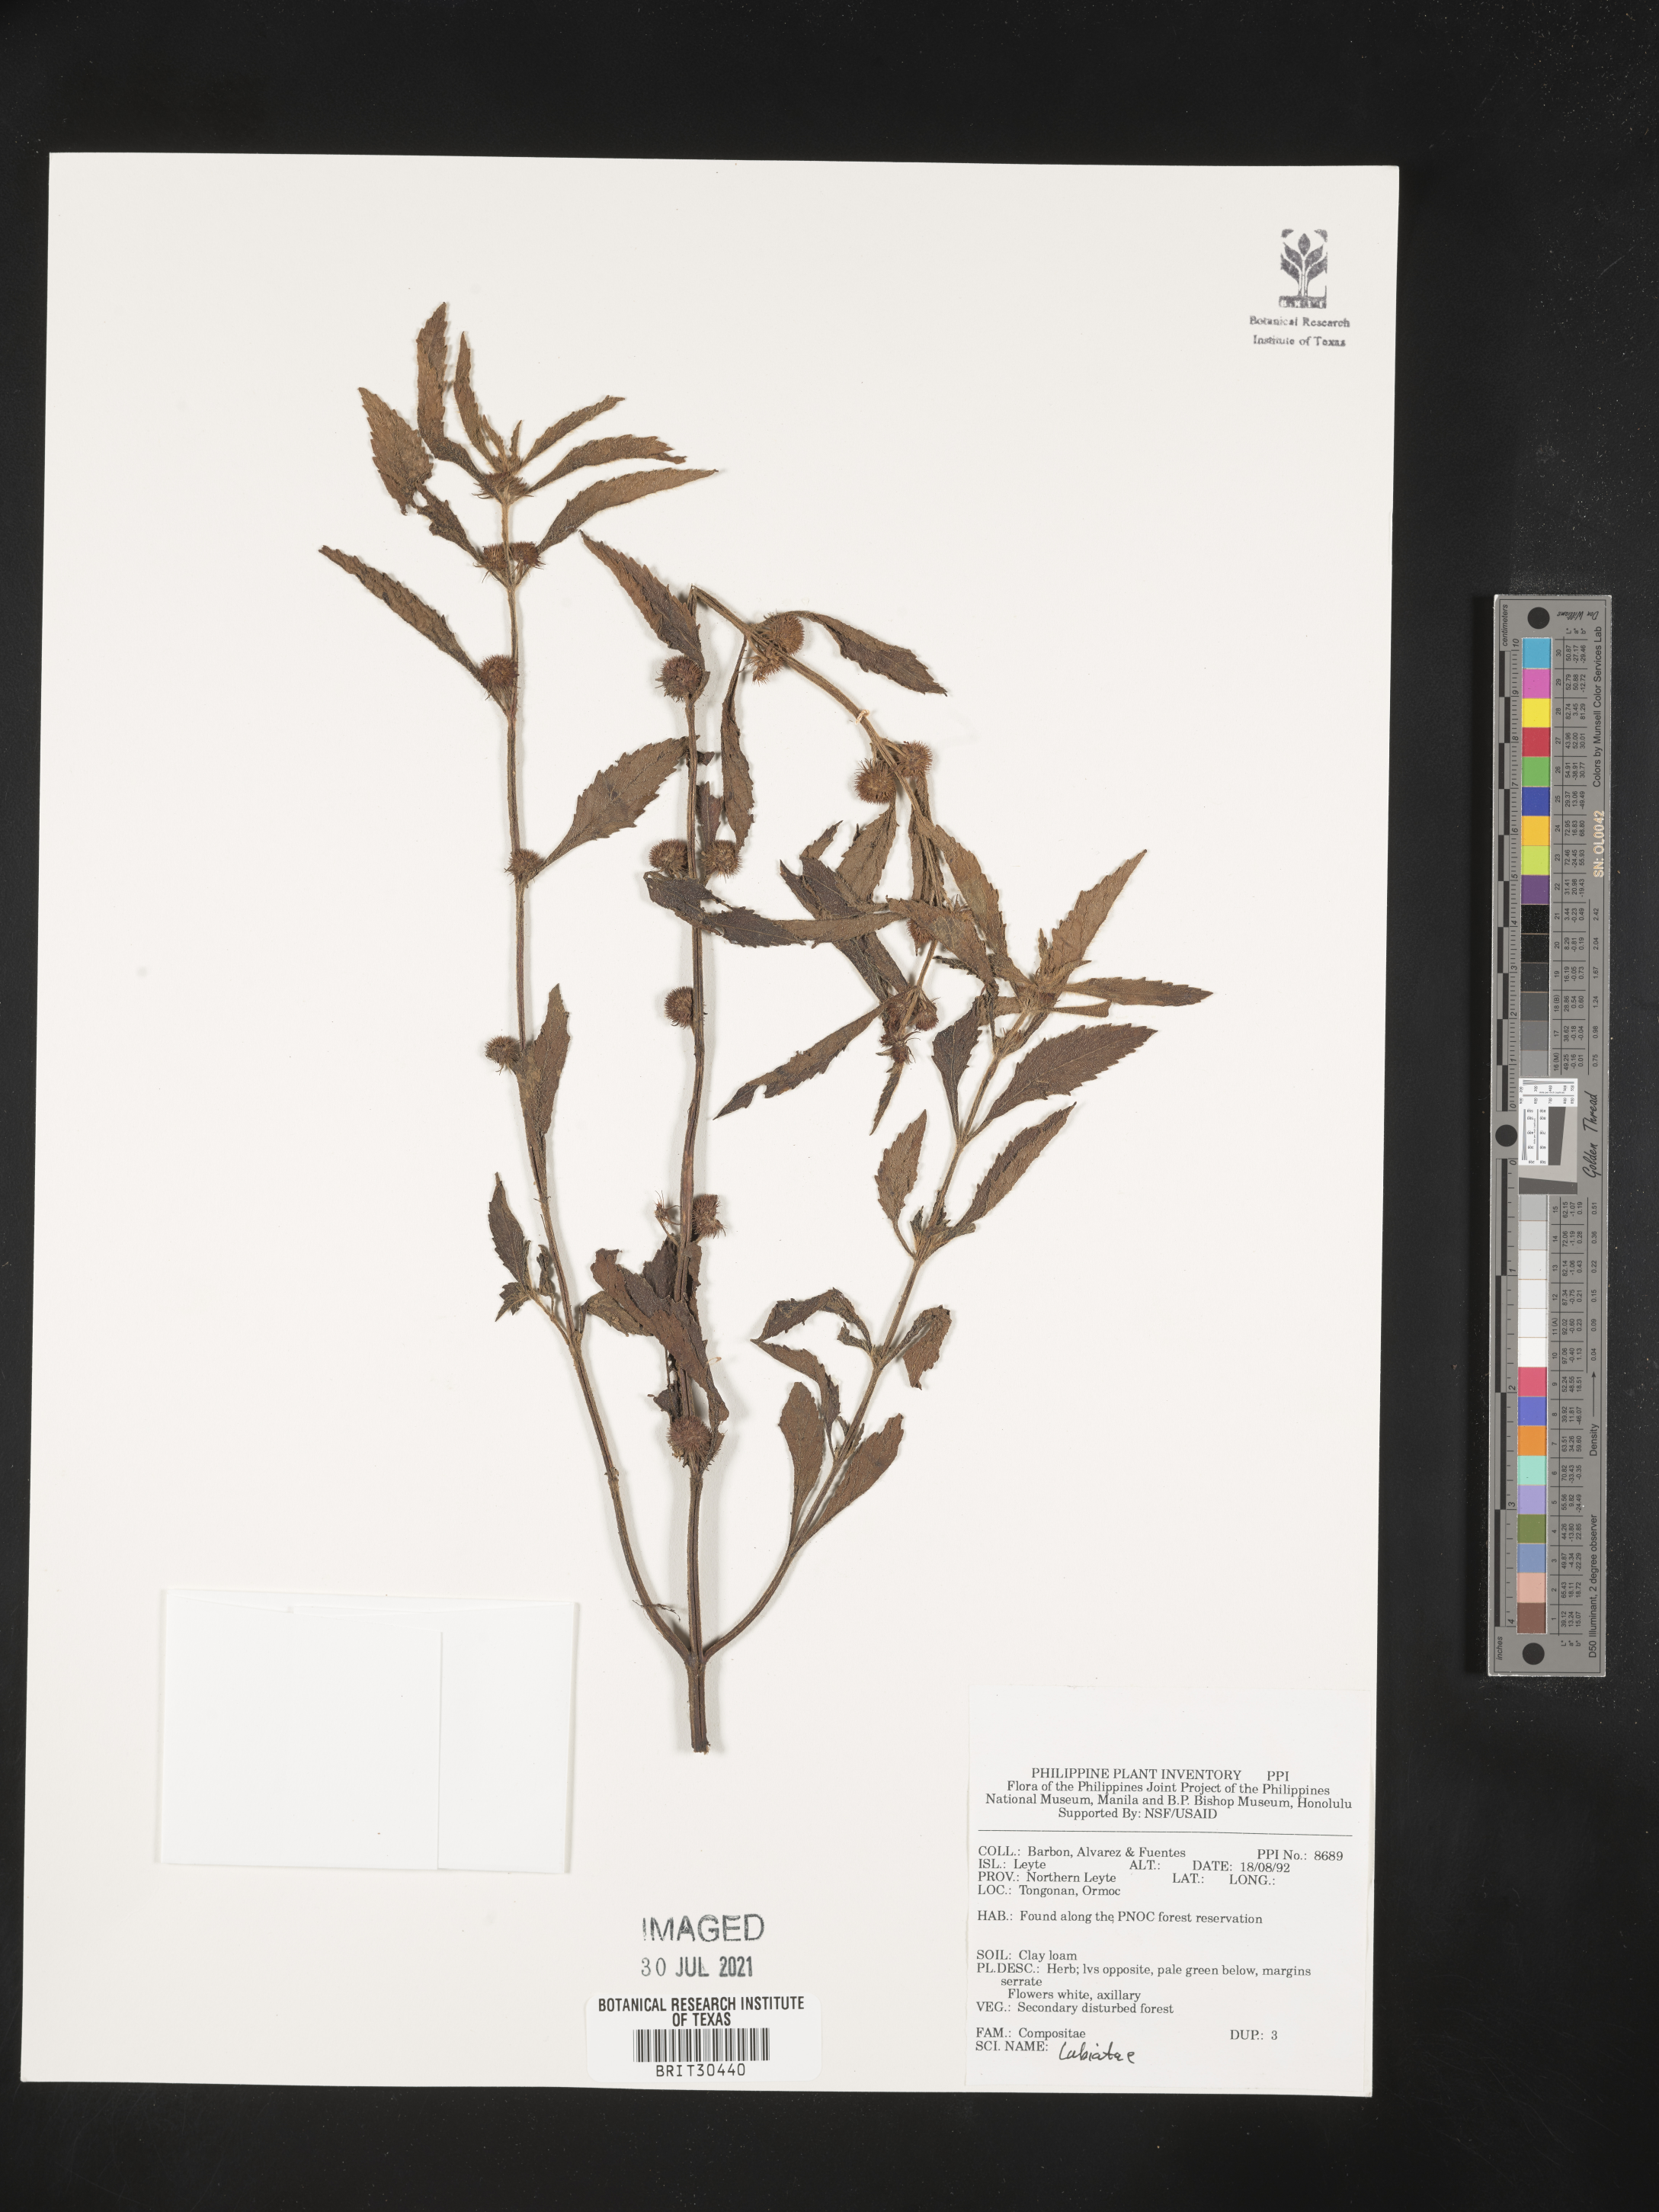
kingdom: Plantae
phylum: Tracheophyta
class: Magnoliopsida
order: Lamiales
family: Lamiaceae
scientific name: Lamiaceae
